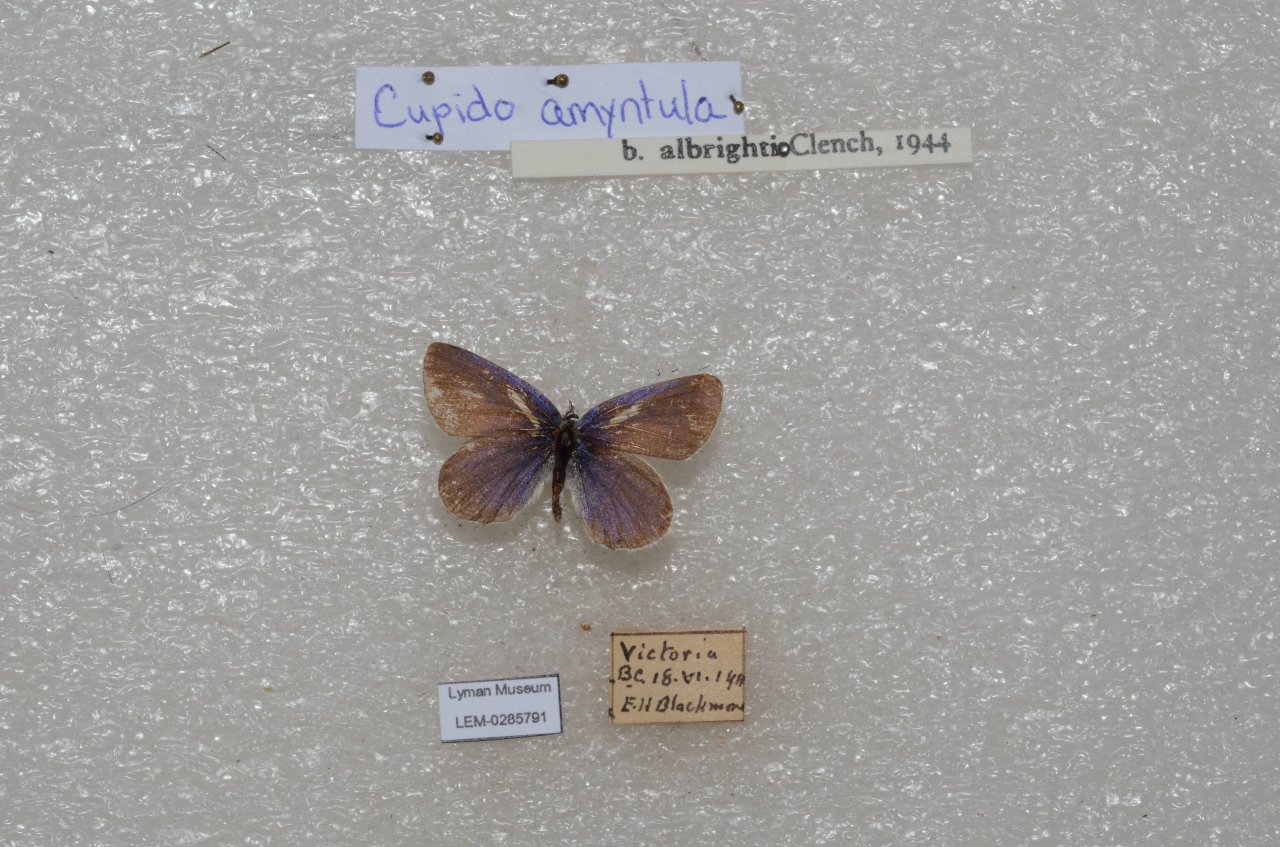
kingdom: Animalia
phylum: Arthropoda
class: Insecta
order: Lepidoptera
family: Lycaenidae
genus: Elkalyce
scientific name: Elkalyce amyntula
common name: Western Tailed-Blue
